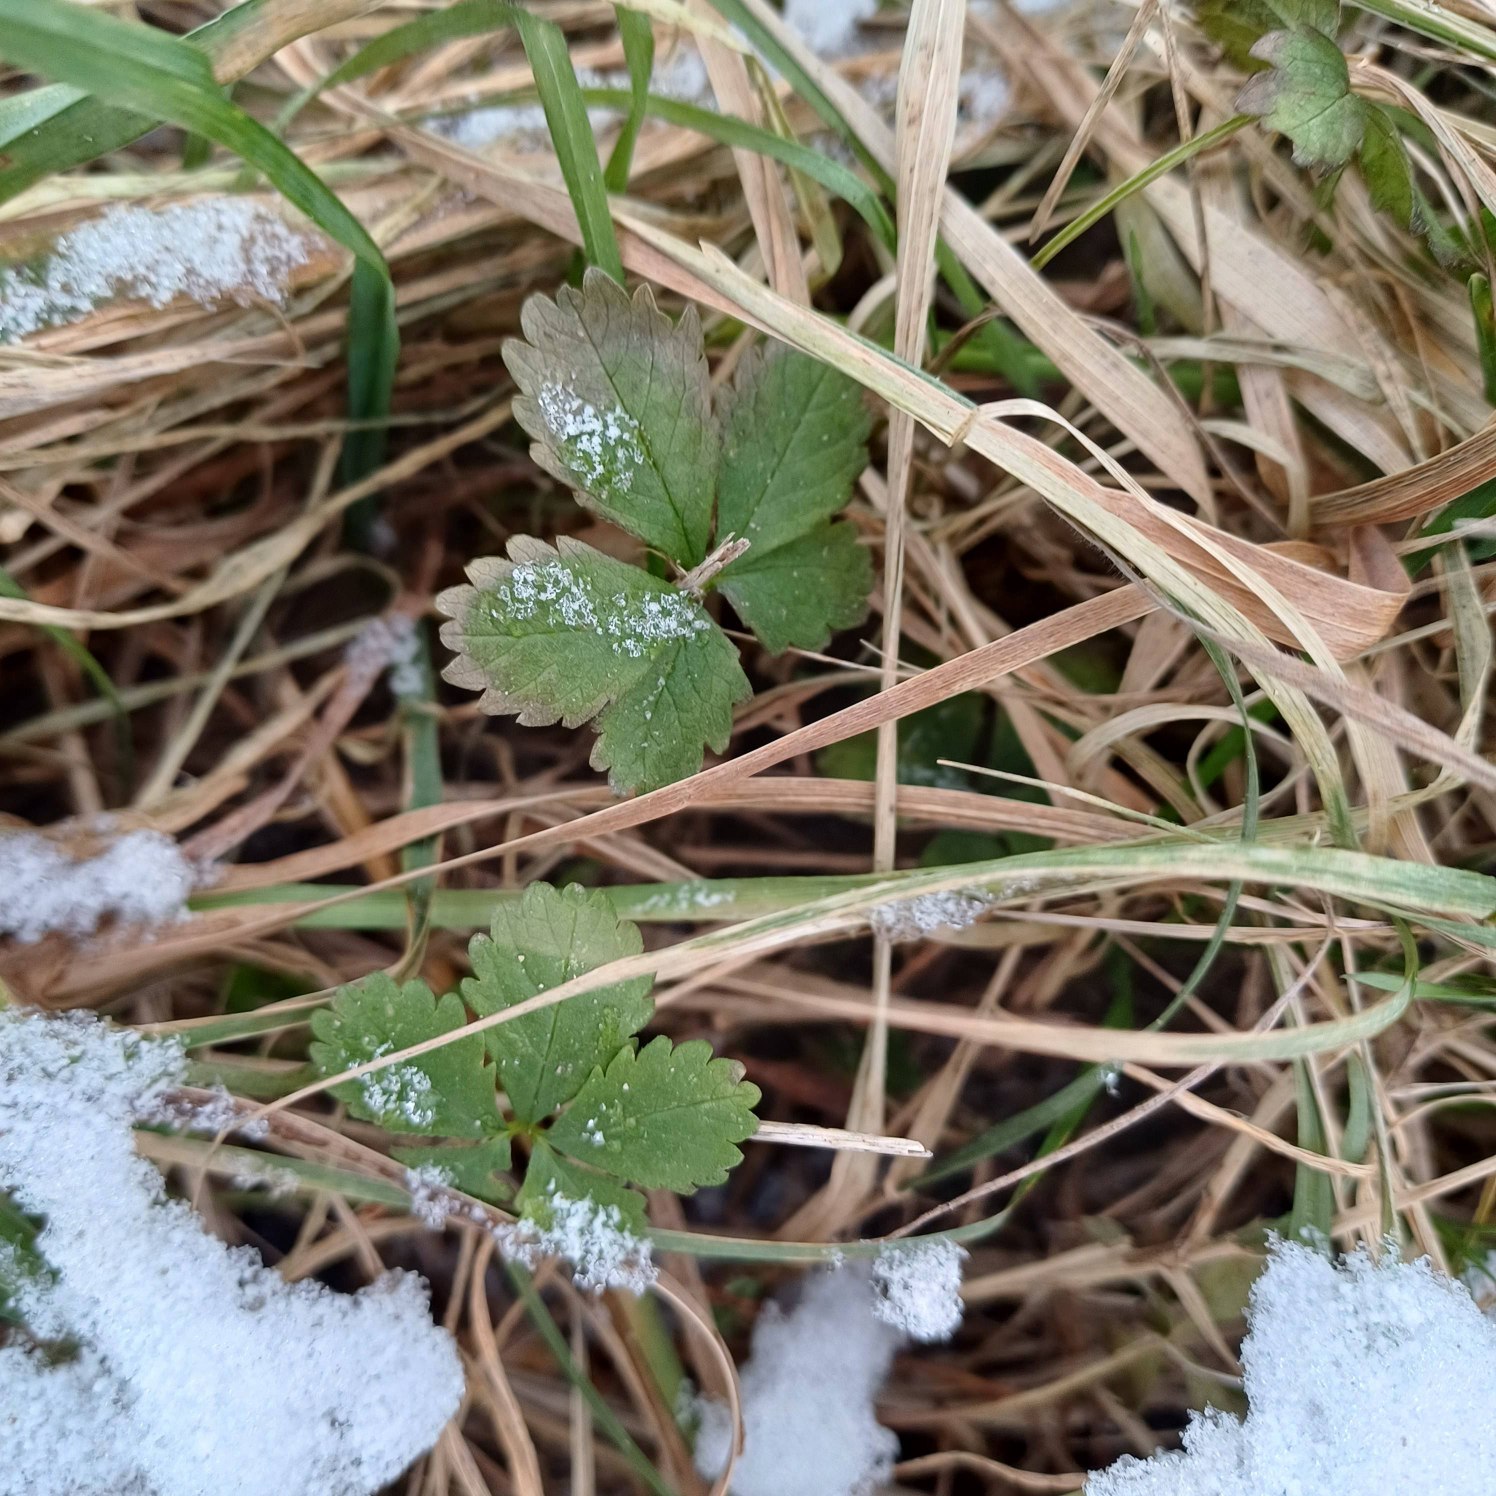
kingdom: Plantae
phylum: Tracheophyta
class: Magnoliopsida
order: Rosales
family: Rosaceae
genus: Potentilla
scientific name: Potentilla reptans
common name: Krybende potentil
